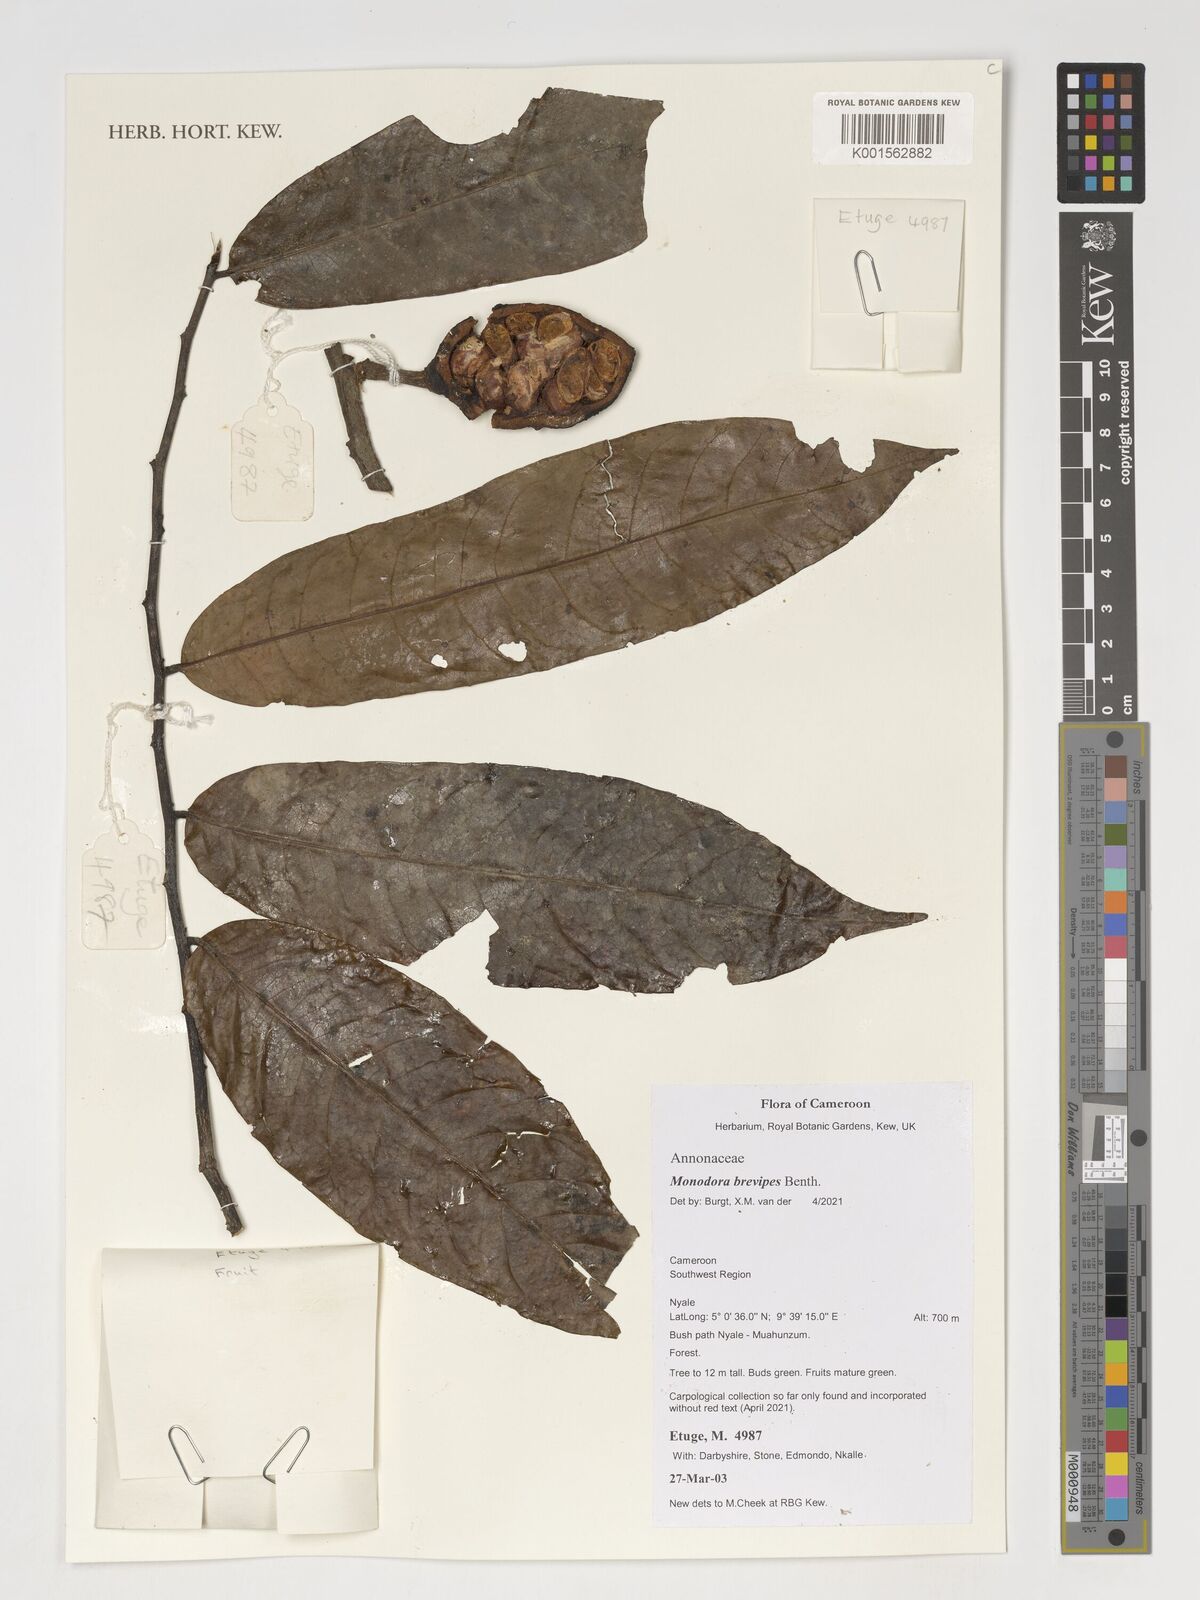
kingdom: Plantae
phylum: Tracheophyta
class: Magnoliopsida
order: Magnoliales
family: Annonaceae
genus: Monodora
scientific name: Monodora undulata
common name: Yellow-flower-nutmeg
